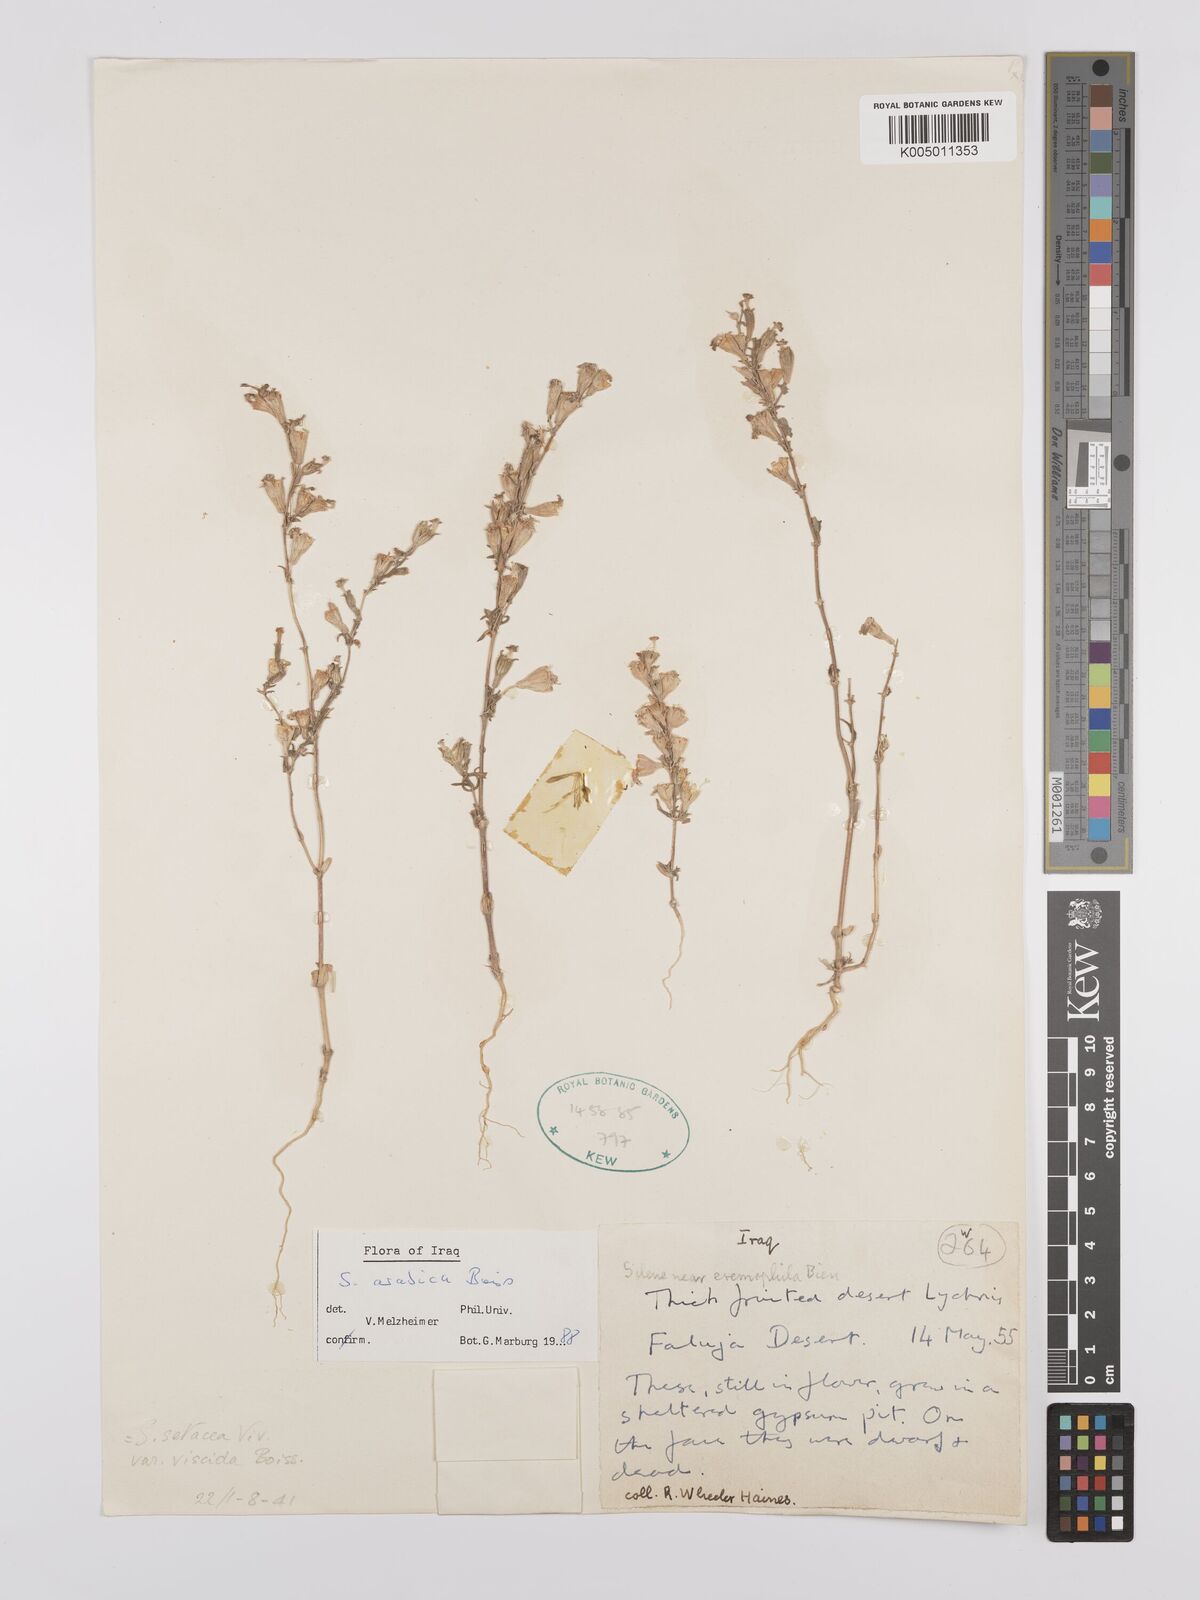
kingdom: Plantae
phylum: Tracheophyta
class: Magnoliopsida
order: Caryophyllales
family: Caryophyllaceae
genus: Silene
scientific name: Silene arabica
